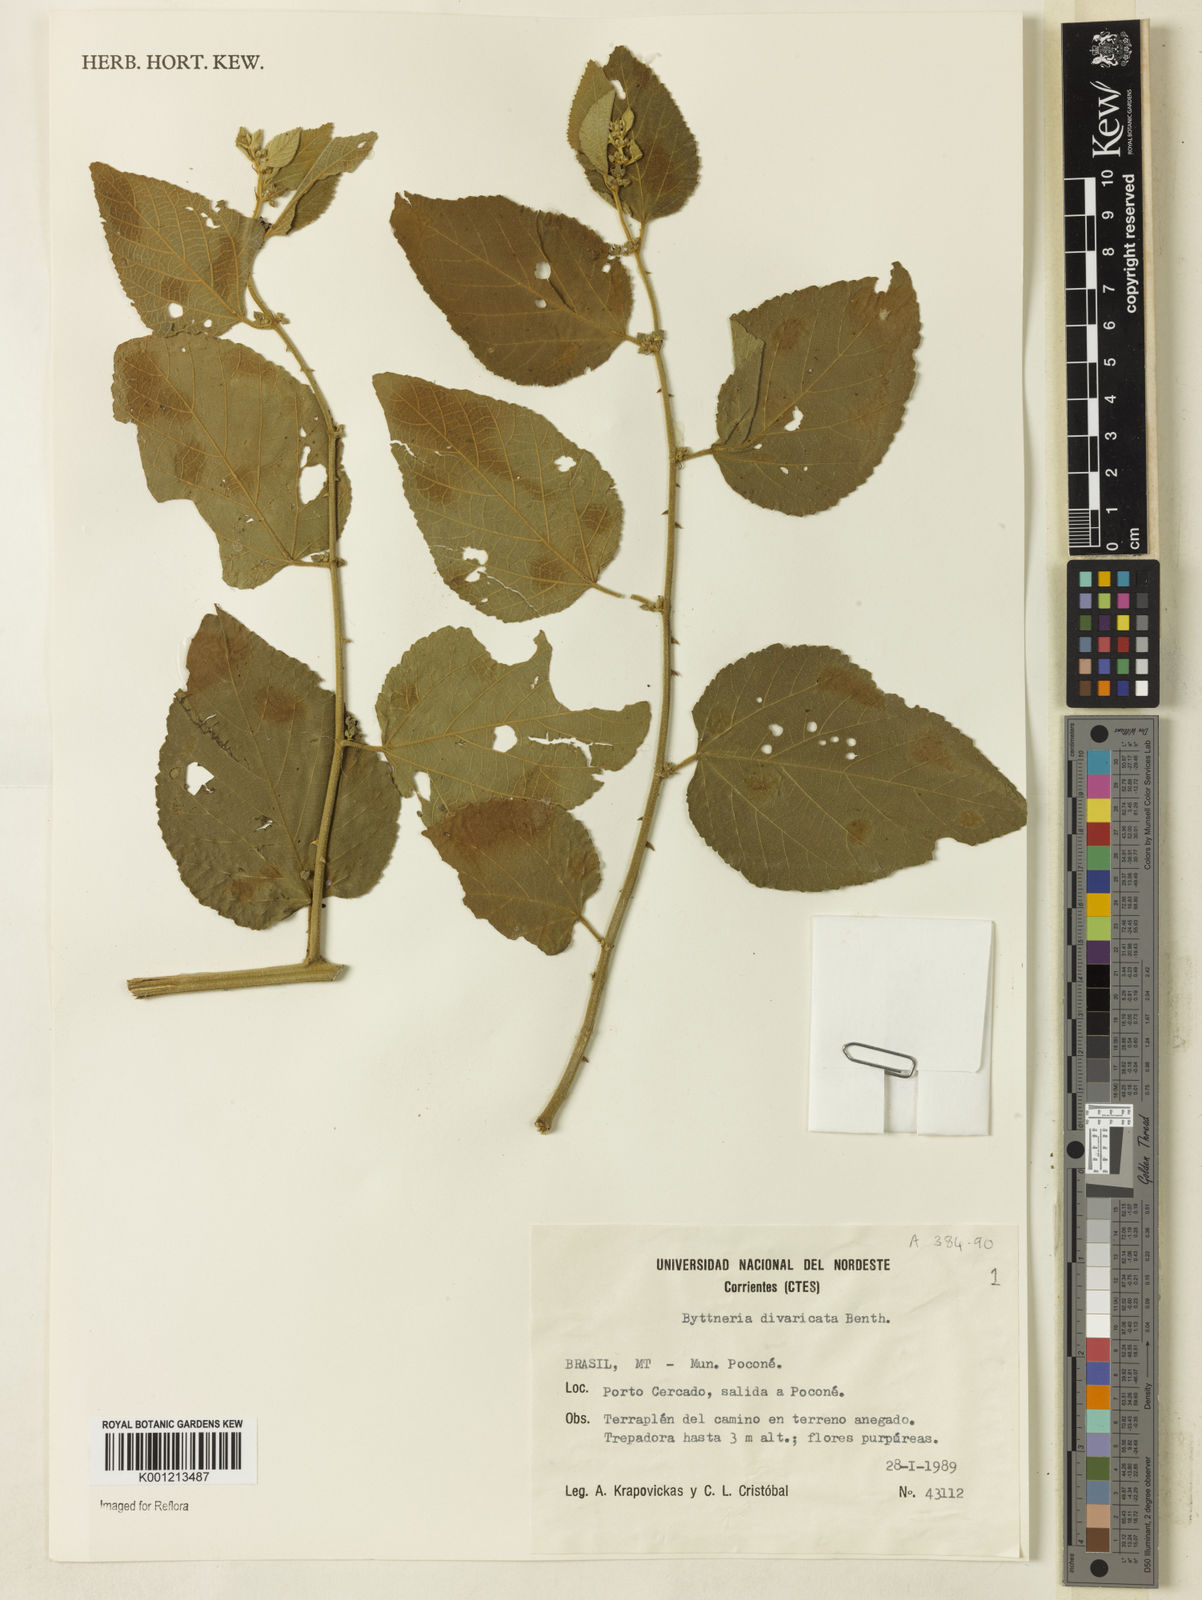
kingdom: Plantae
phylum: Tracheophyta
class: Magnoliopsida
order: Malvales
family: Malvaceae
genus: Byttneria
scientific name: Byttneria divaricata
